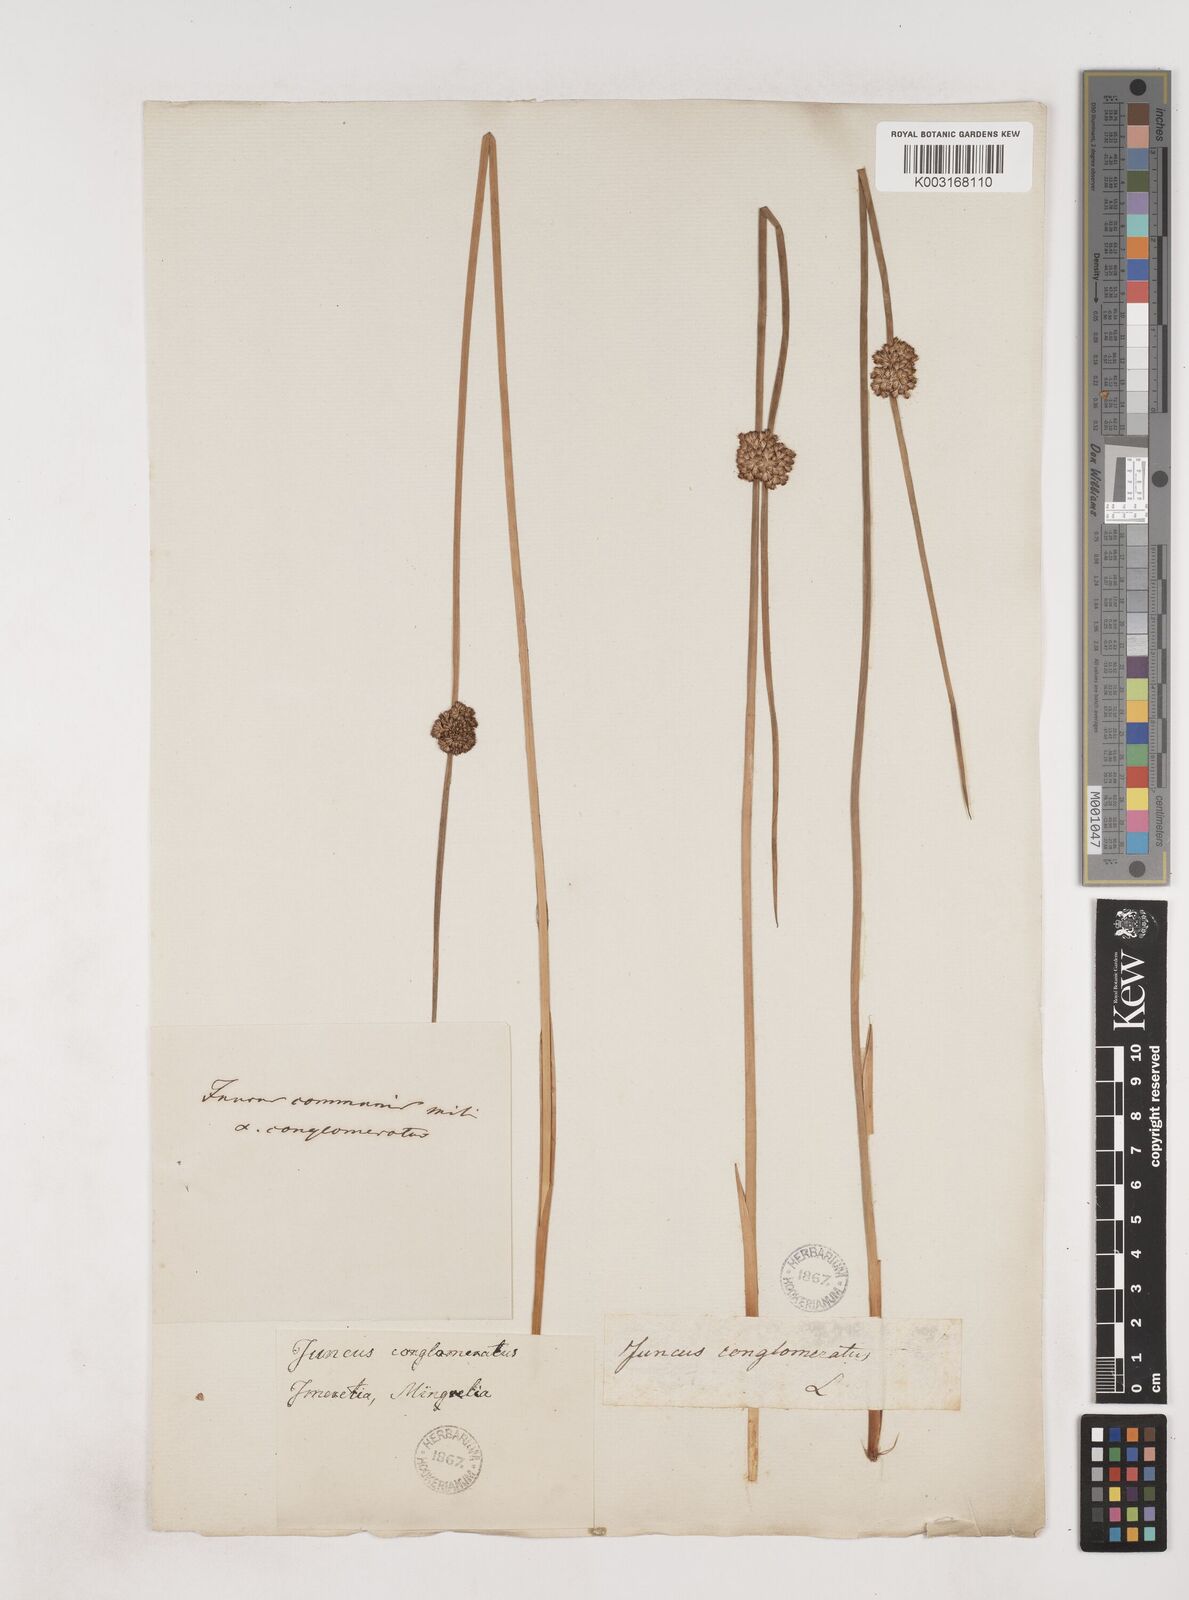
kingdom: Plantae
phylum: Tracheophyta
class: Liliopsida
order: Poales
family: Juncaceae
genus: Juncus
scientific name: Juncus conglomeratus
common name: Compact rush
